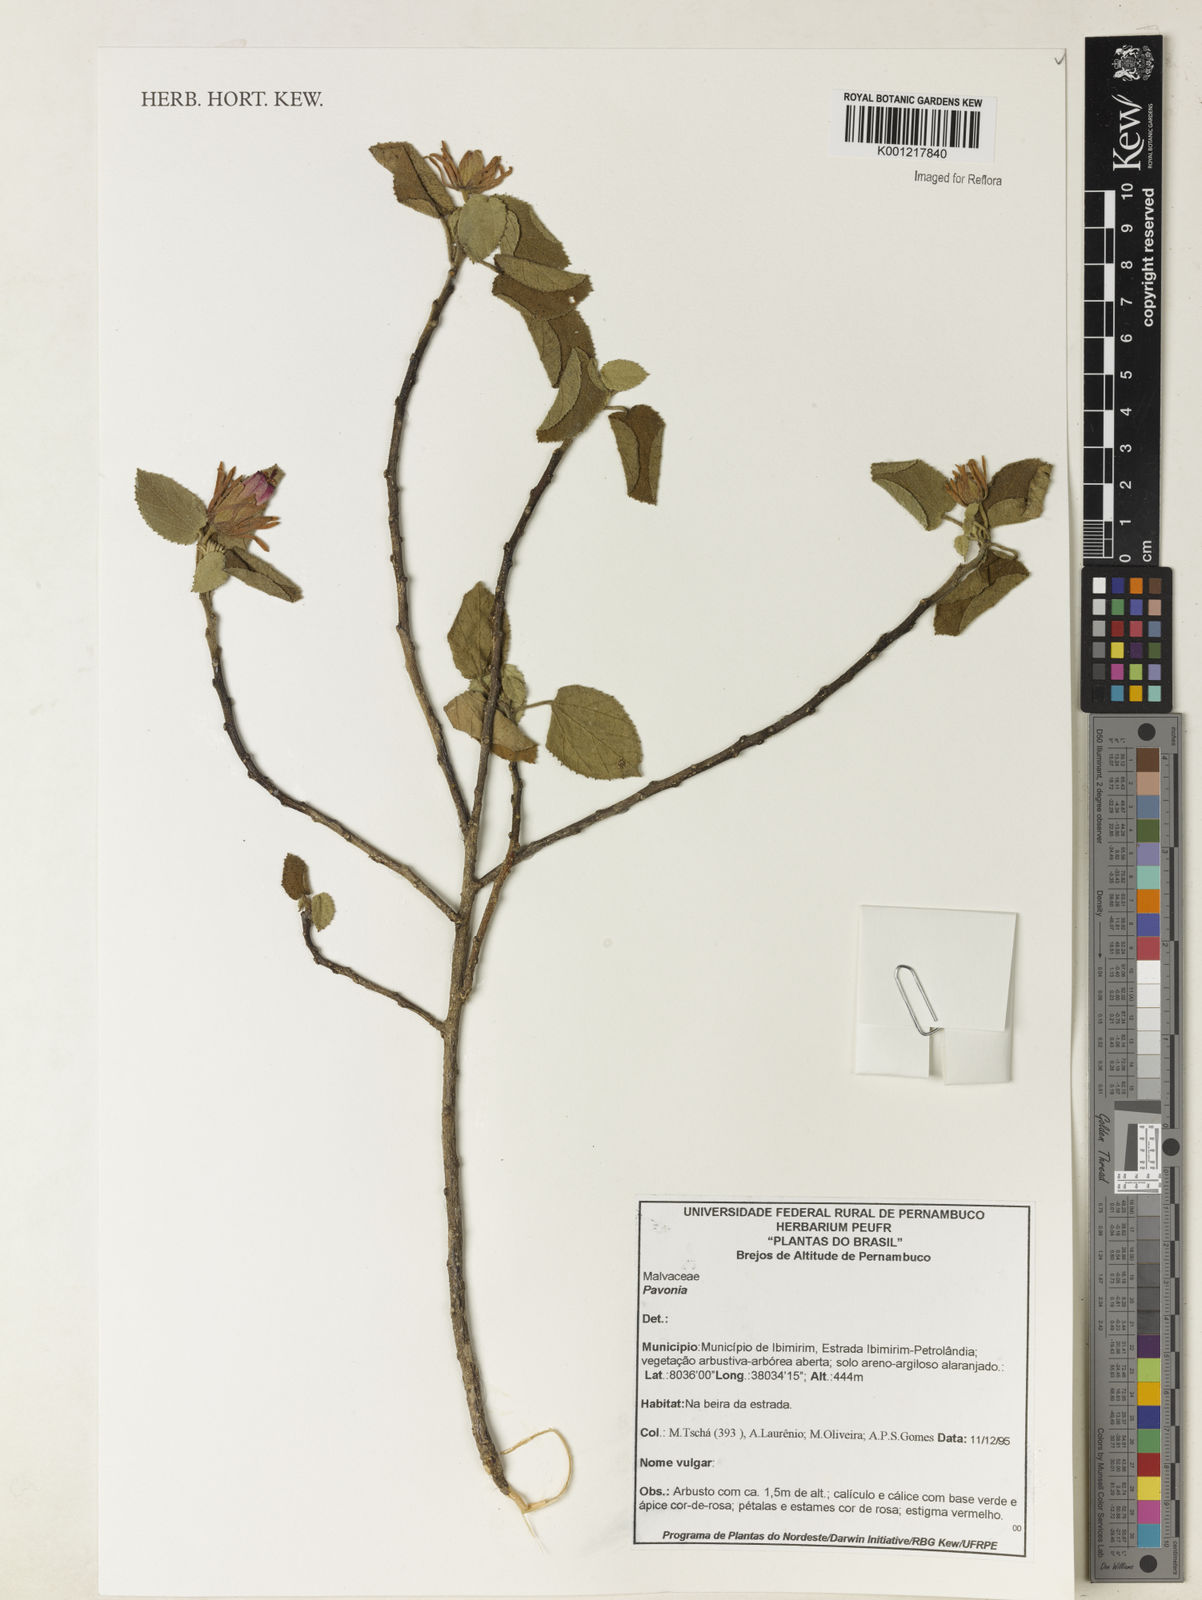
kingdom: Plantae
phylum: Tracheophyta
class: Magnoliopsida
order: Malvales
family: Malvaceae
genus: Pavonia
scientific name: Pavonia
